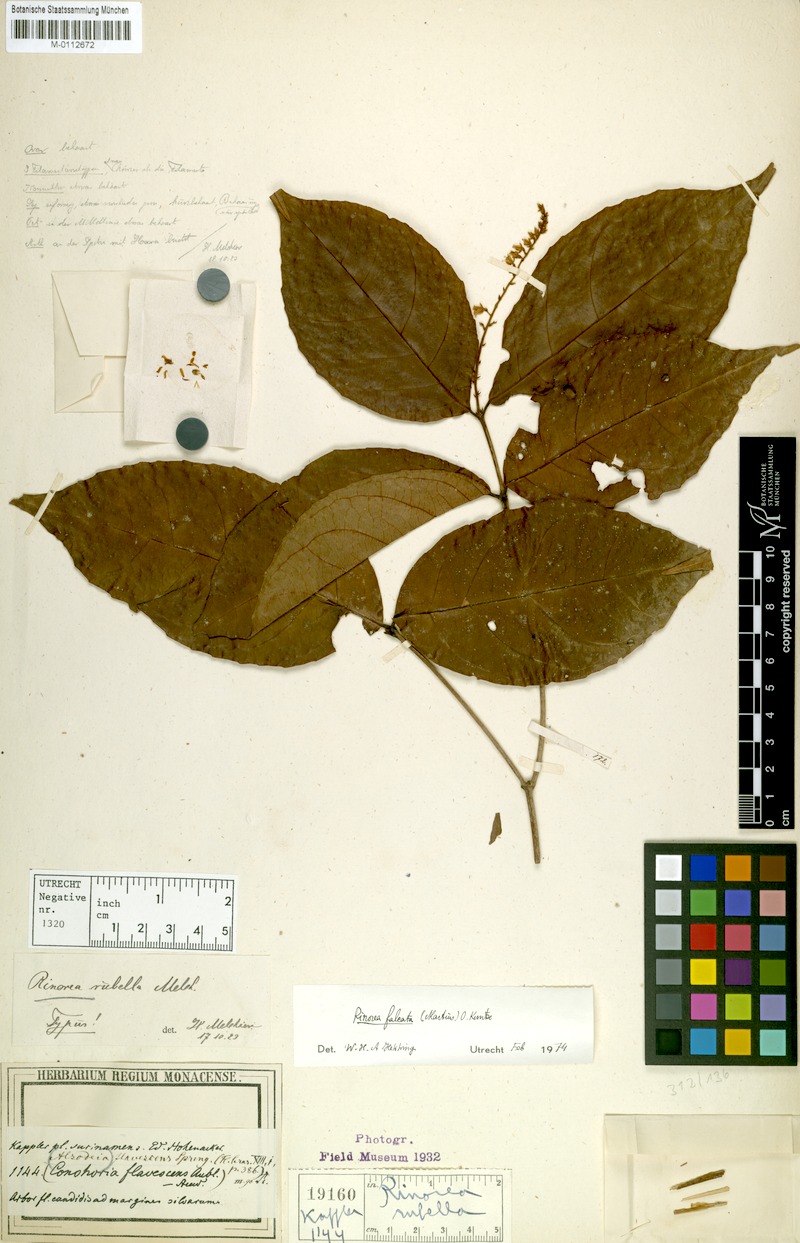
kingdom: Plantae
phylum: Tracheophyta
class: Magnoliopsida
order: Malpighiales
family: Violaceae
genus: Rinorea
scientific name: Rinorea falcata
